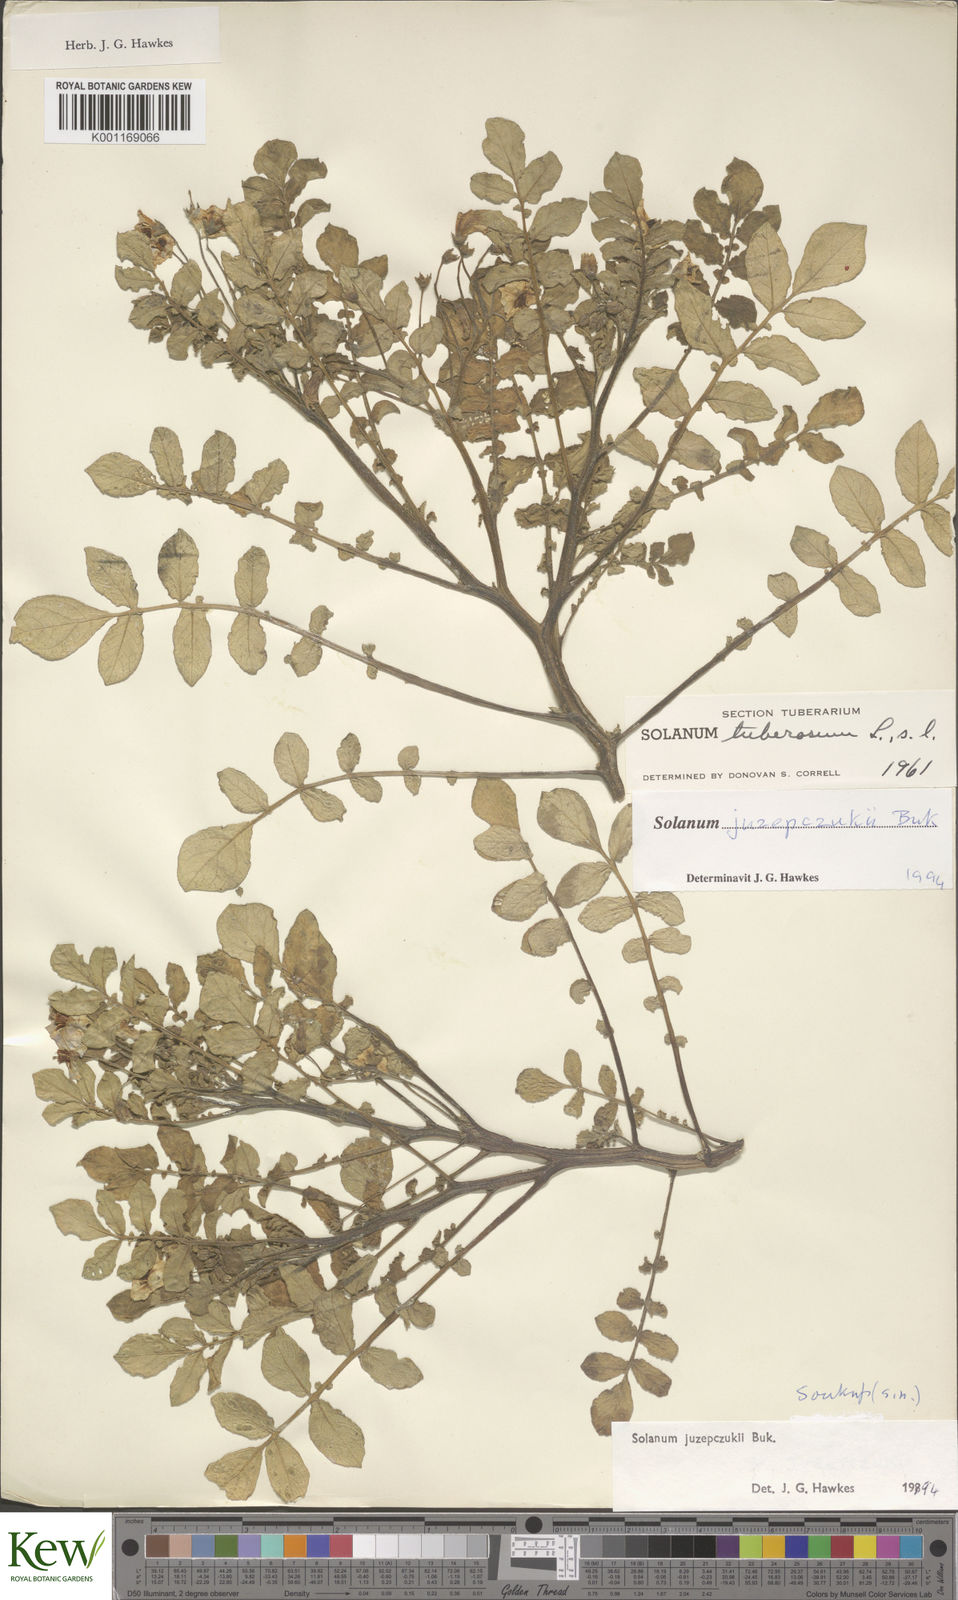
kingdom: Plantae
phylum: Tracheophyta
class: Magnoliopsida
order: Solanales
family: Solanaceae
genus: Solanum
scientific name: Solanum juzepczukii
